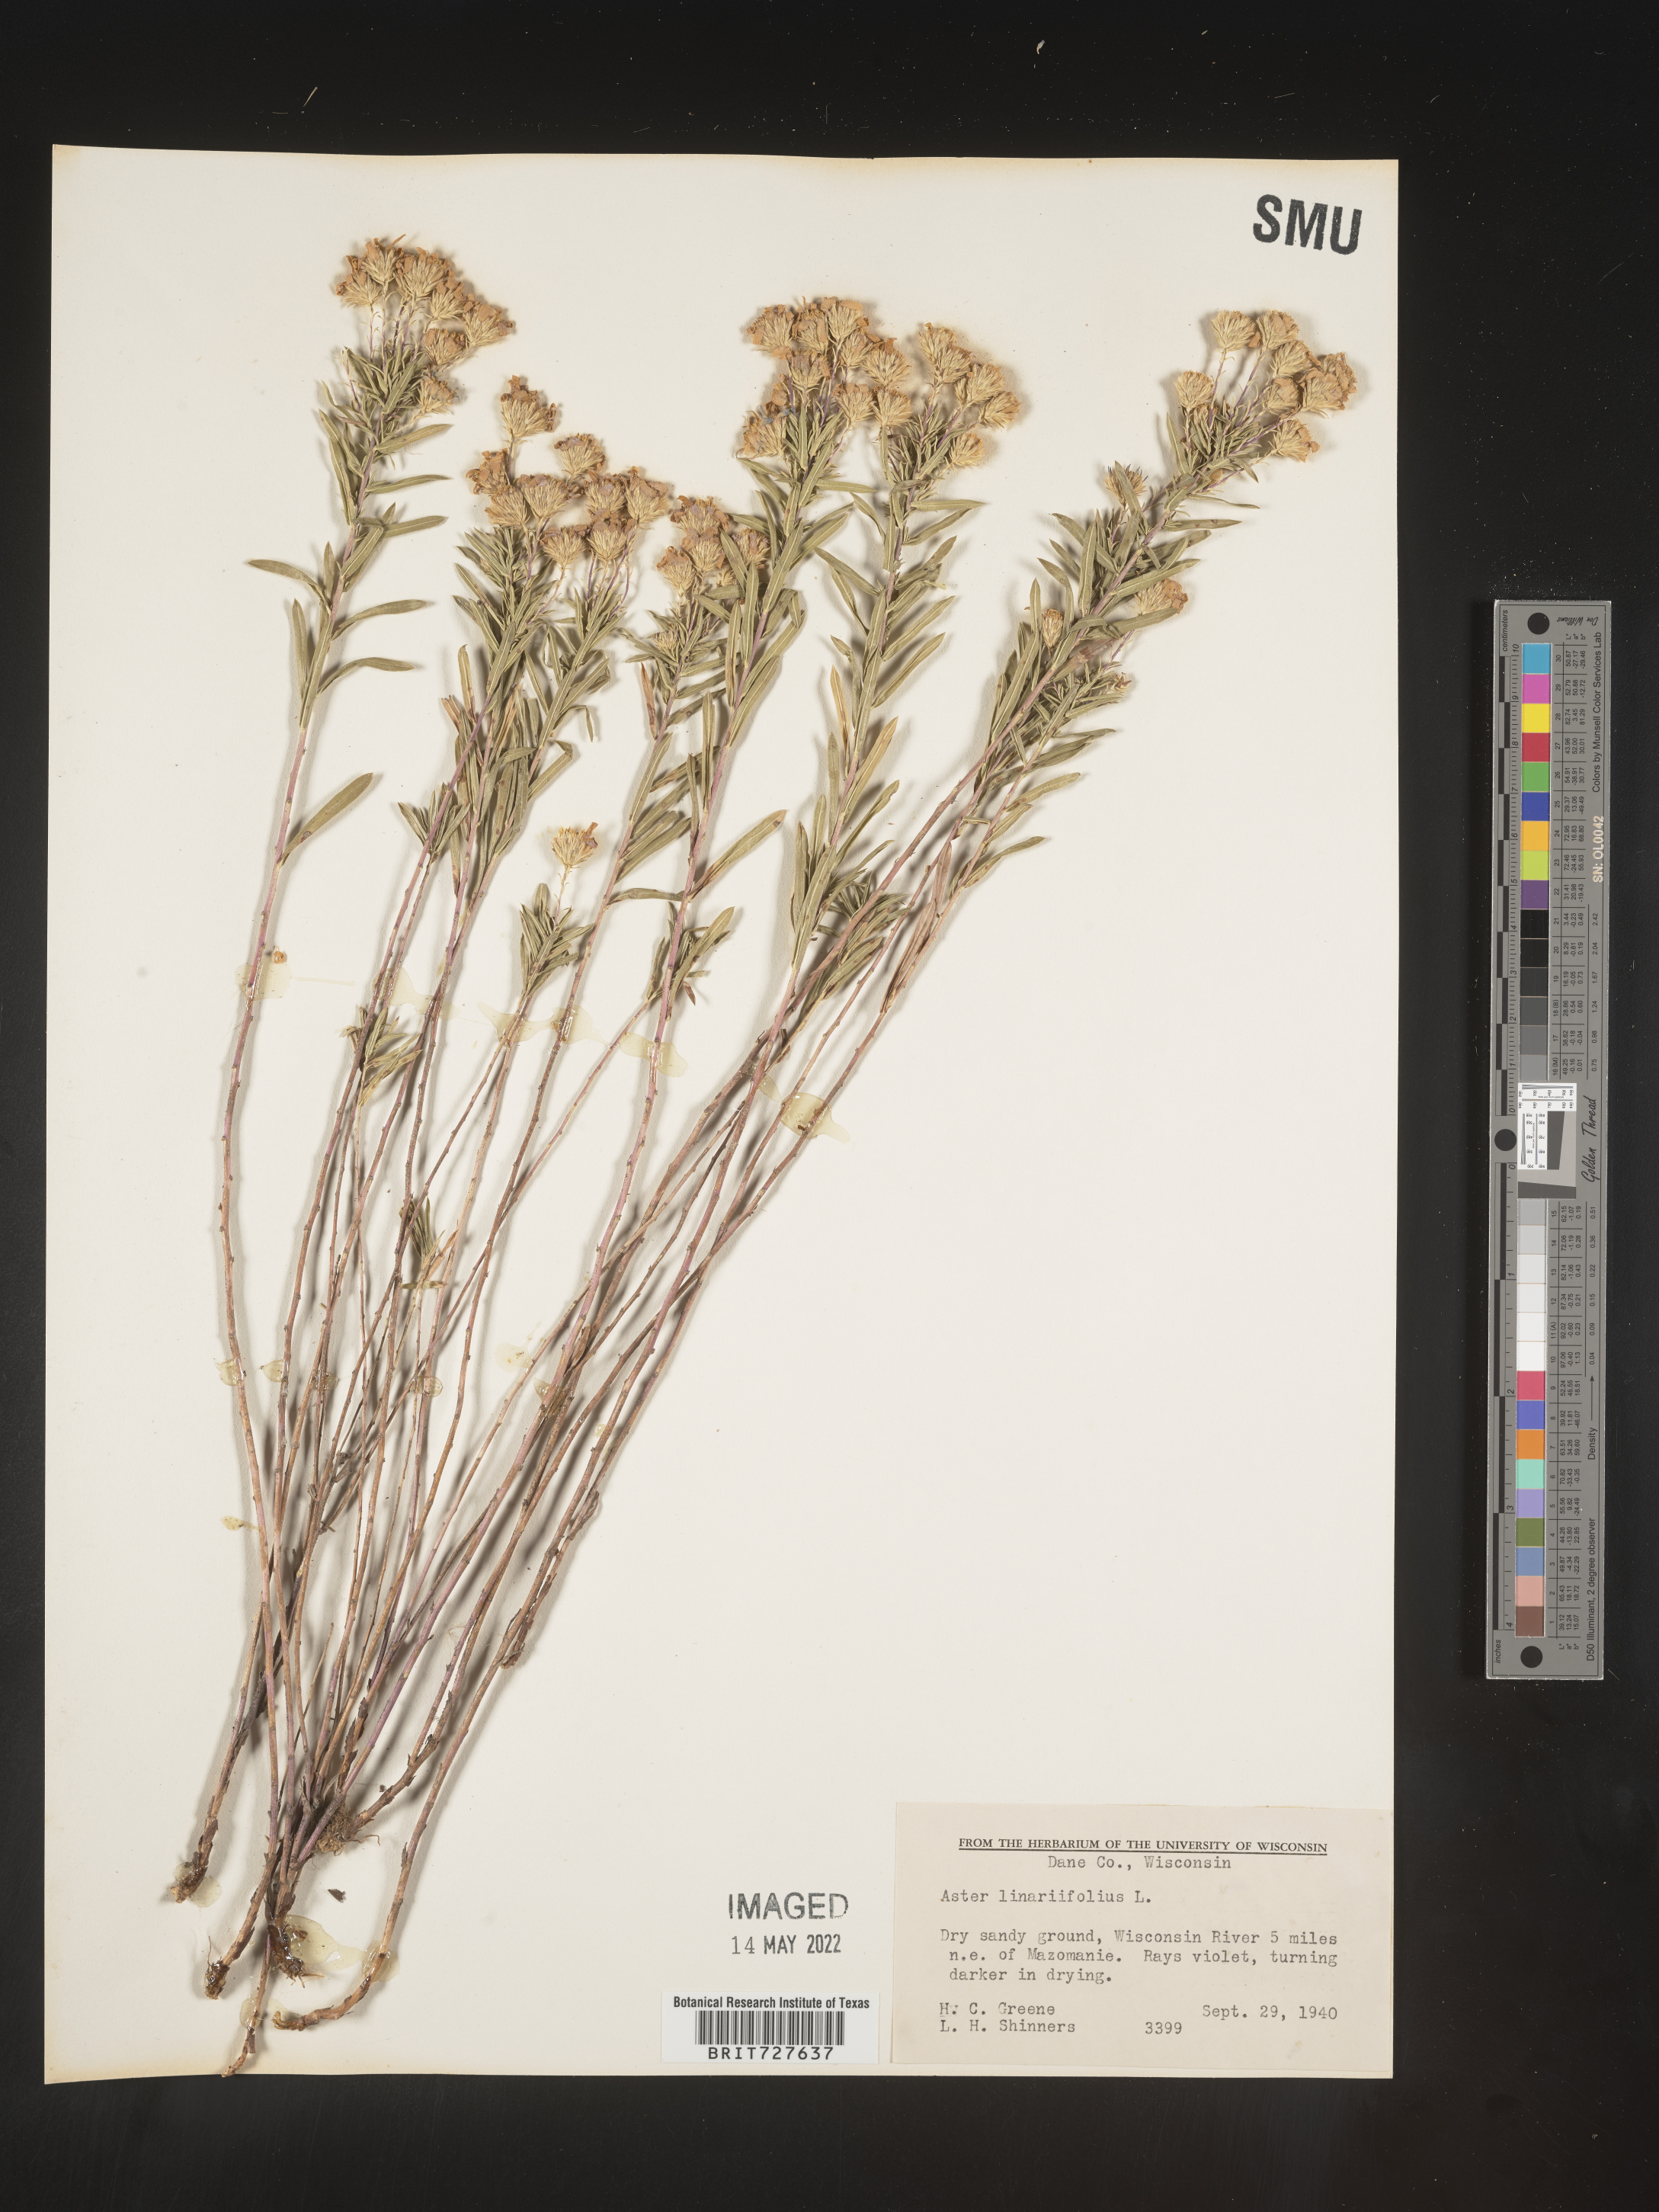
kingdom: Plantae
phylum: Tracheophyta
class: Magnoliopsida
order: Asterales
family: Asteraceae
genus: Ionactis
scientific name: Ionactis linariifolia
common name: Flax-leaf aster
